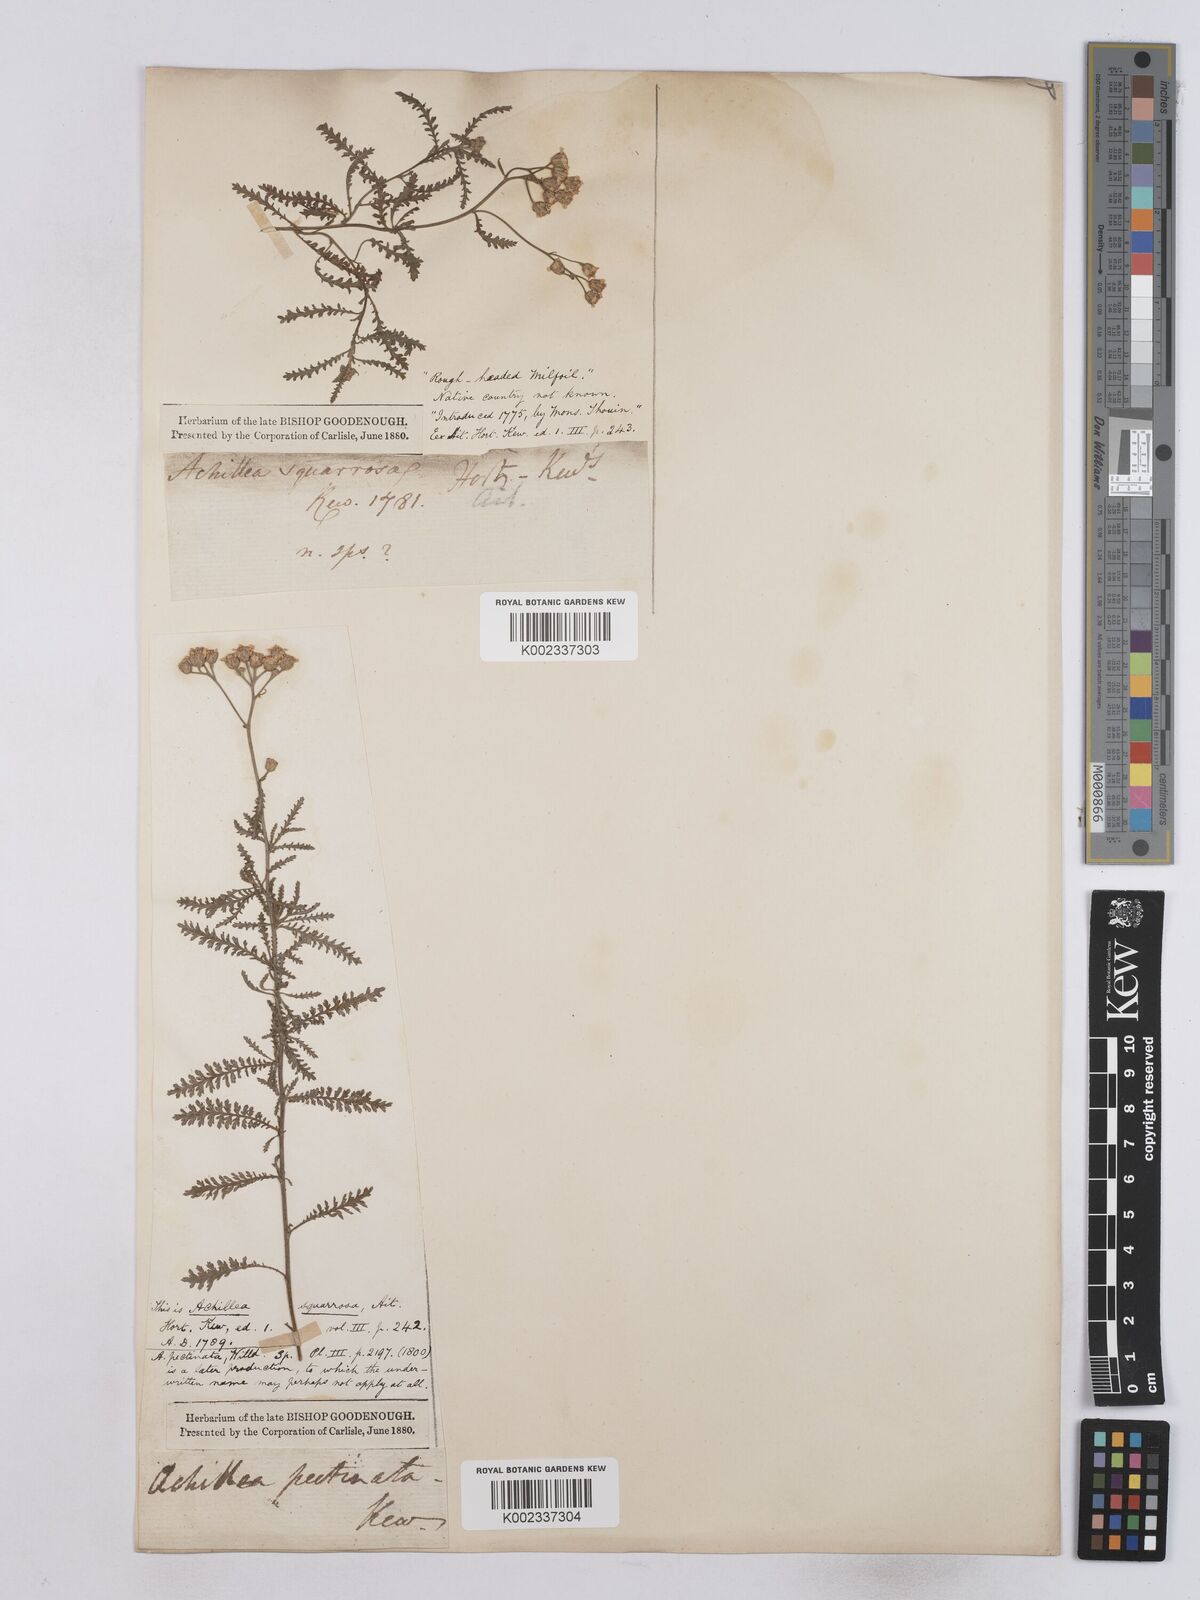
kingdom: Plantae
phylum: Tracheophyta
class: Magnoliopsida
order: Asterales
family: Asteraceae
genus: Achillea
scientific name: Achillea ochroleuca
